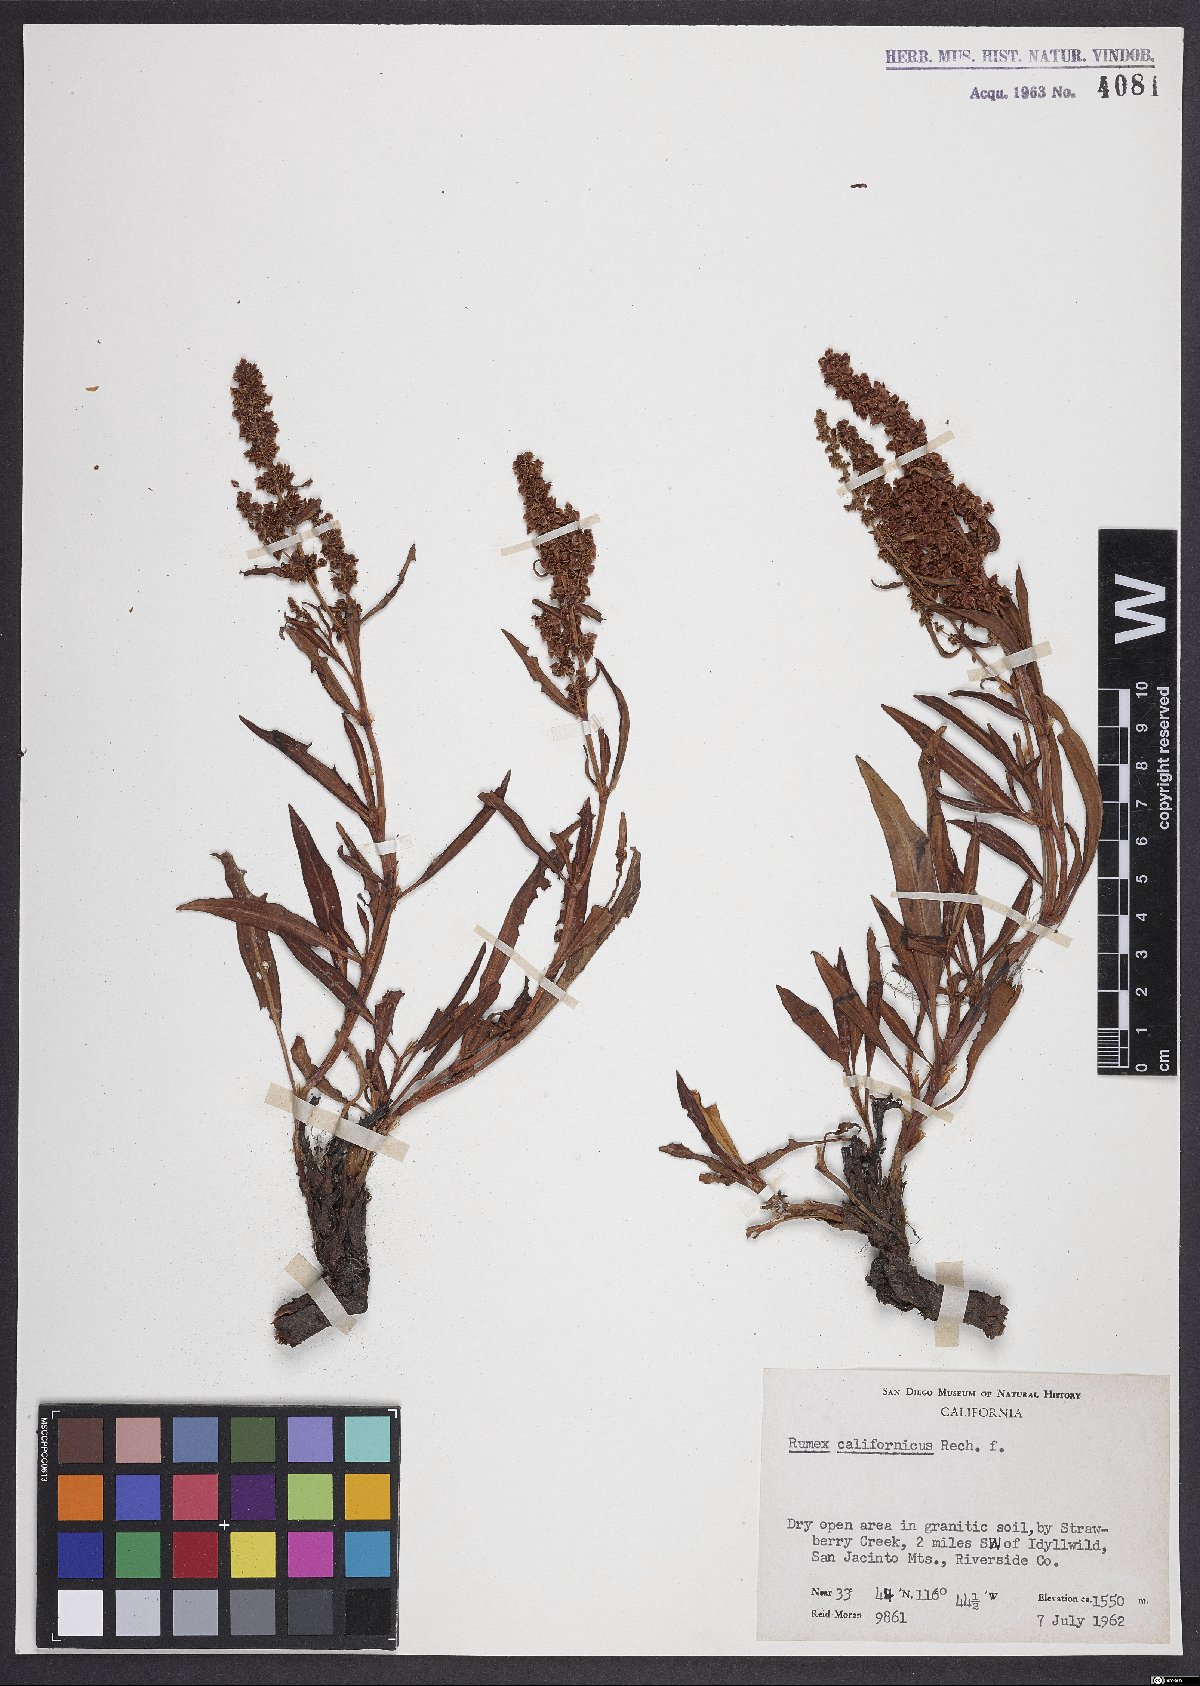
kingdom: Plantae
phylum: Tracheophyta
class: Magnoliopsida
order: Caryophyllales
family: Polygonaceae
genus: Rumex
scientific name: Rumex californicus
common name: California willow dock
